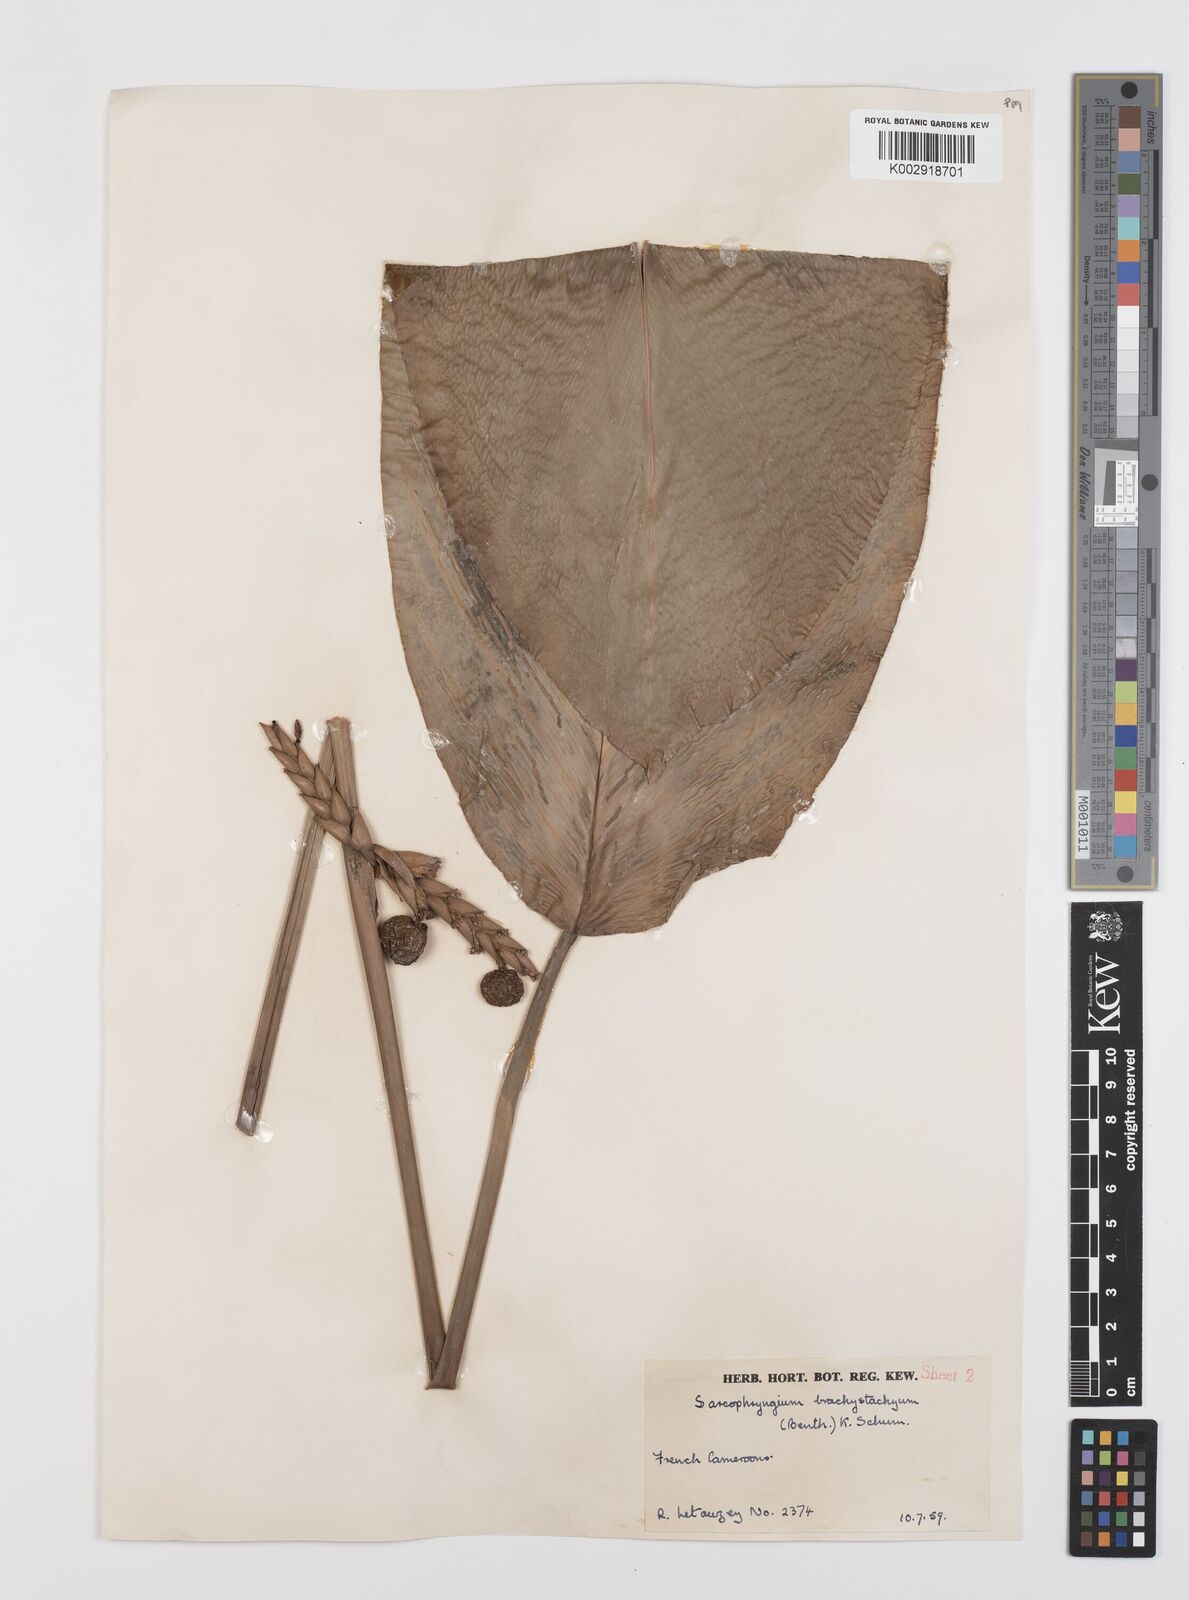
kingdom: Plantae
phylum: Tracheophyta
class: Liliopsida
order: Zingiberales
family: Marantaceae
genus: Sarcophrynium
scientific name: Sarcophrynium brachystachyum
